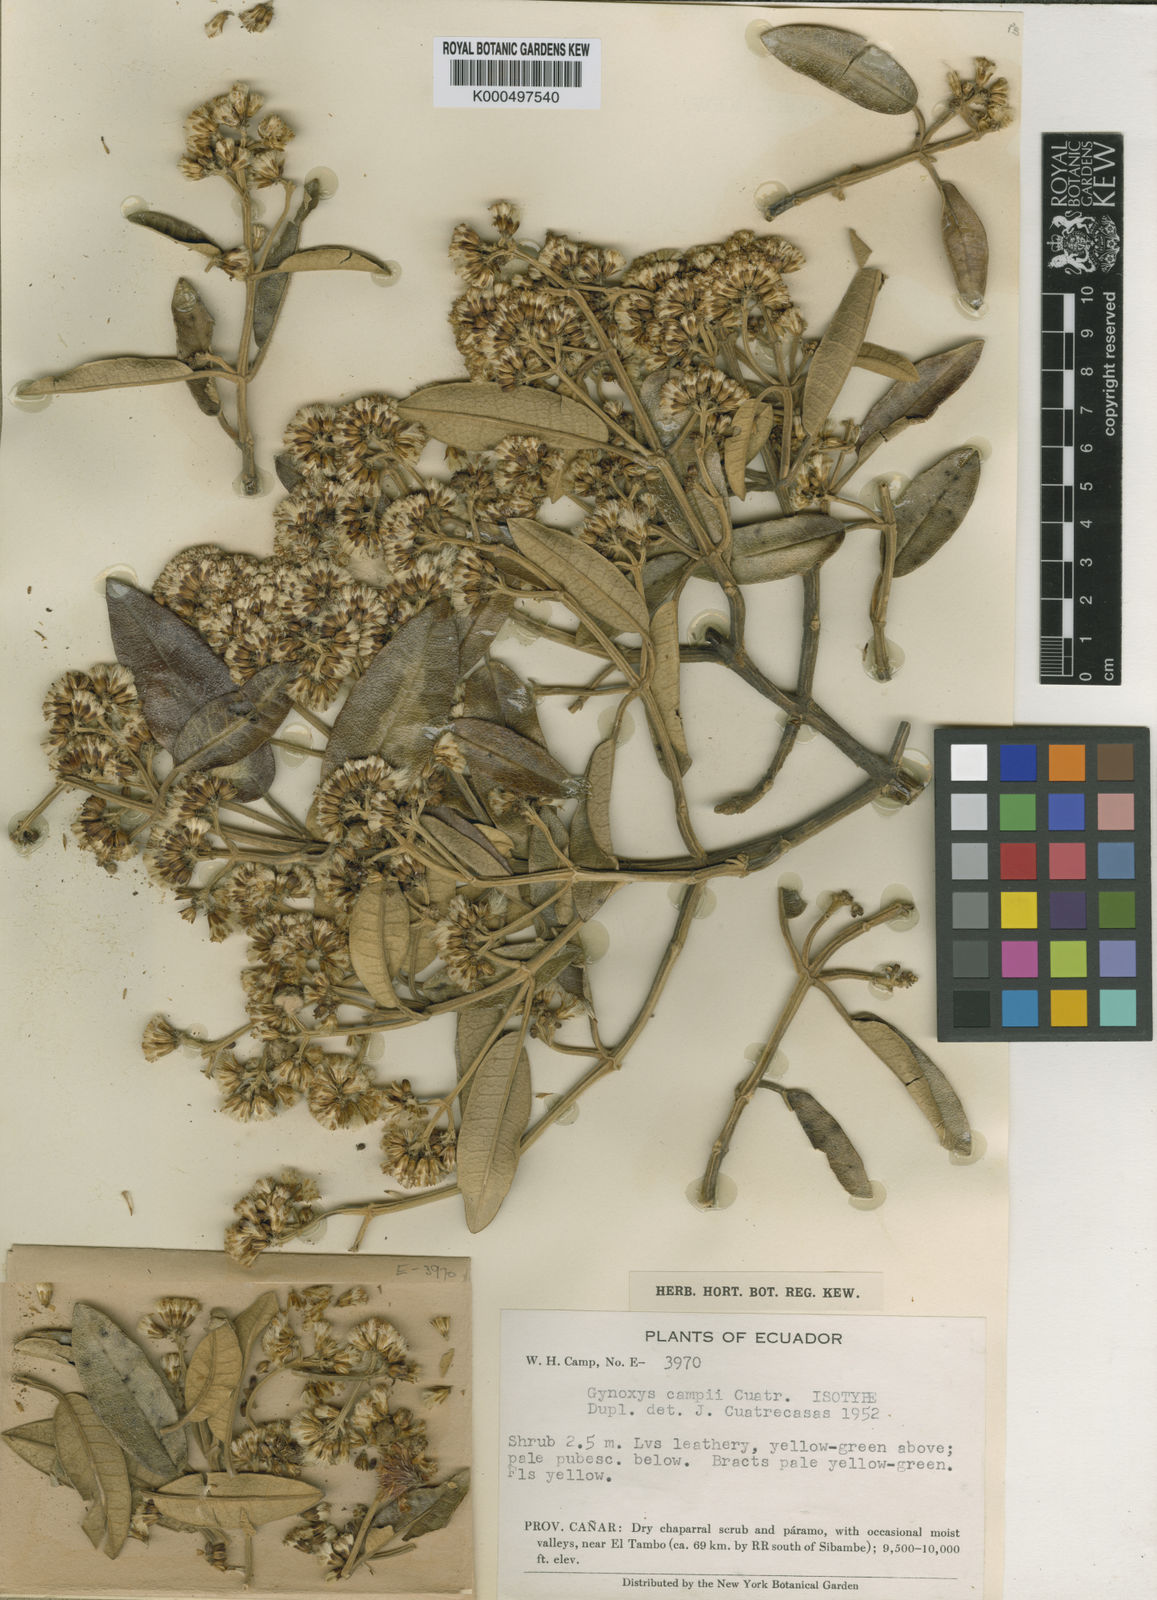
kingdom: Plantae
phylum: Tracheophyta
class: Magnoliopsida
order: Asterales
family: Asteraceae
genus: Gynoxys
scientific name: Gynoxys campii
